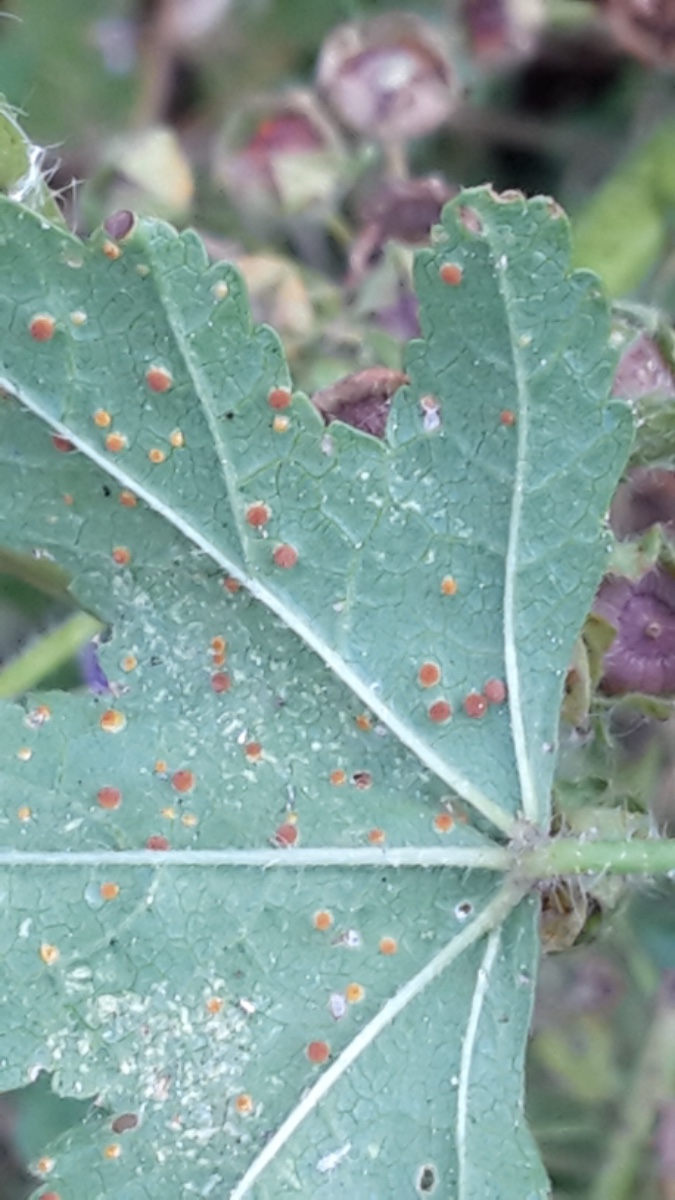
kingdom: Fungi
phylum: Basidiomycota
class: Pucciniomycetes
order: Pucciniales
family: Pucciniaceae
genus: Puccinia
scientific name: Puccinia malvacearum
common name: stokrose-tvecellerust
